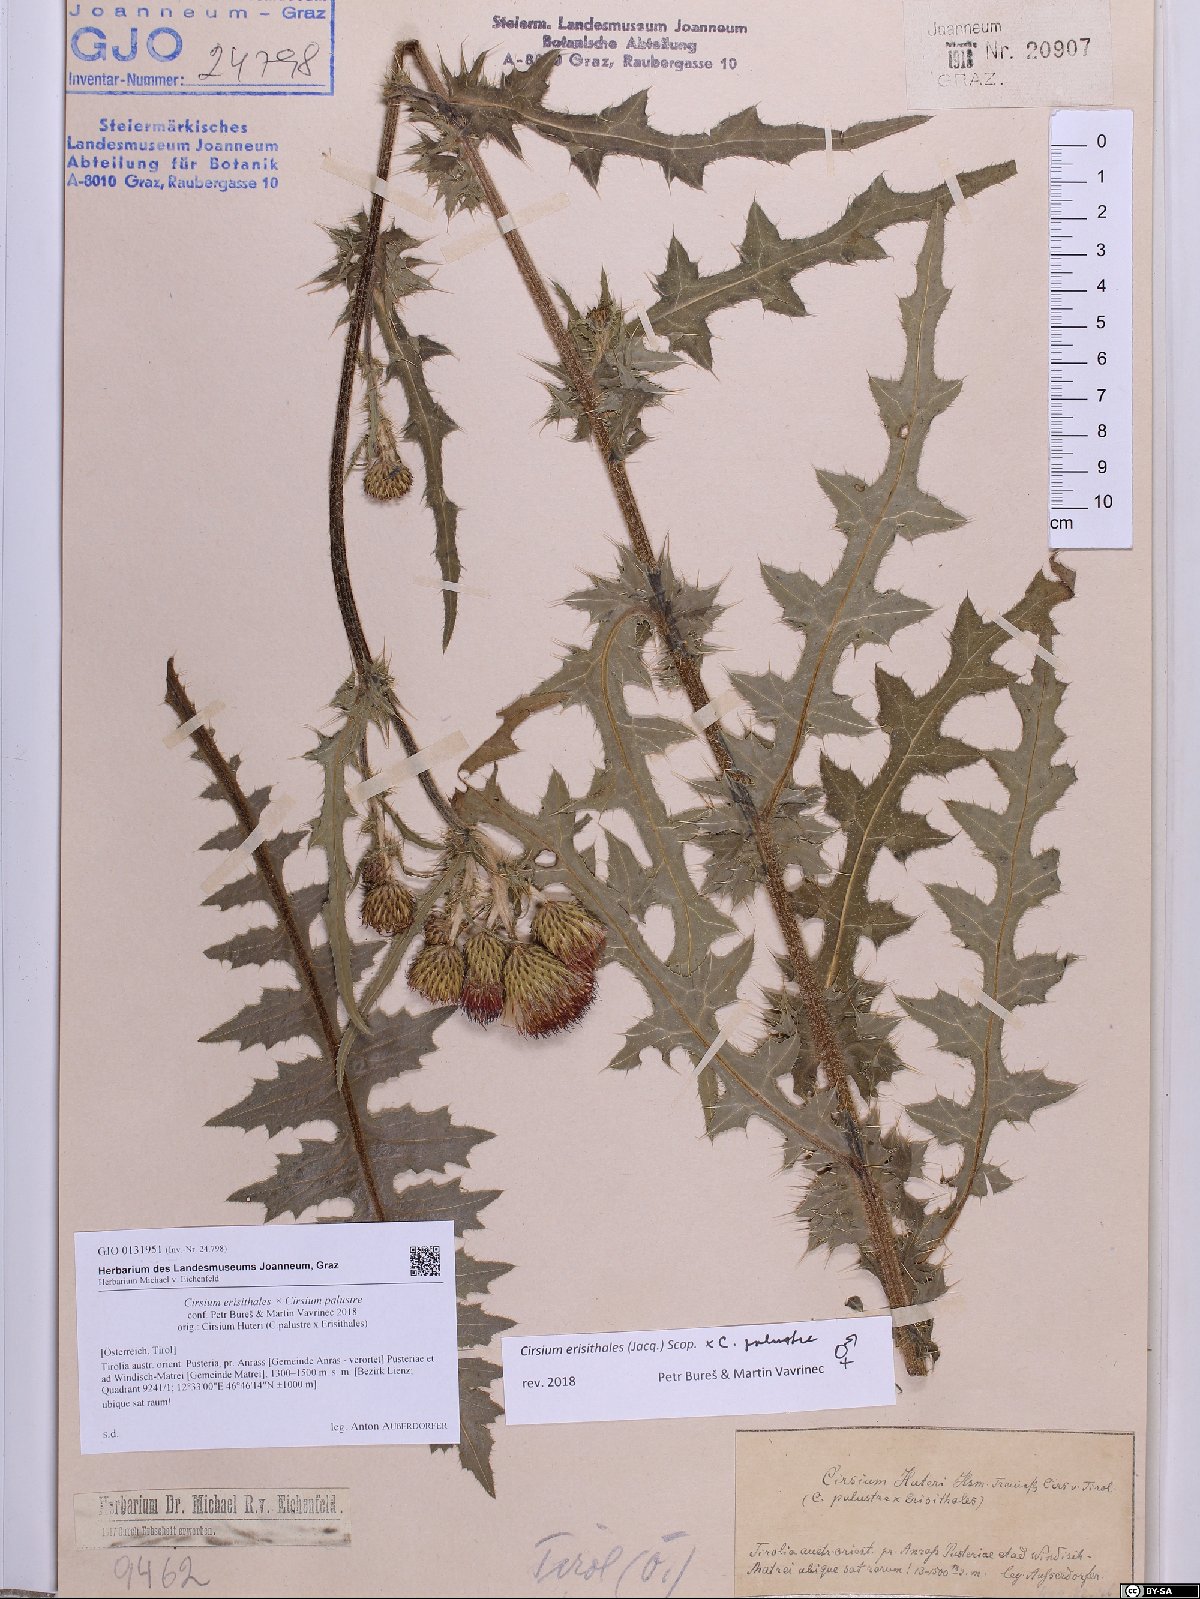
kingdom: Plantae
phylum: Tracheophyta
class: Magnoliopsida
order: Asterales
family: Asteraceae
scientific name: Asteraceae
